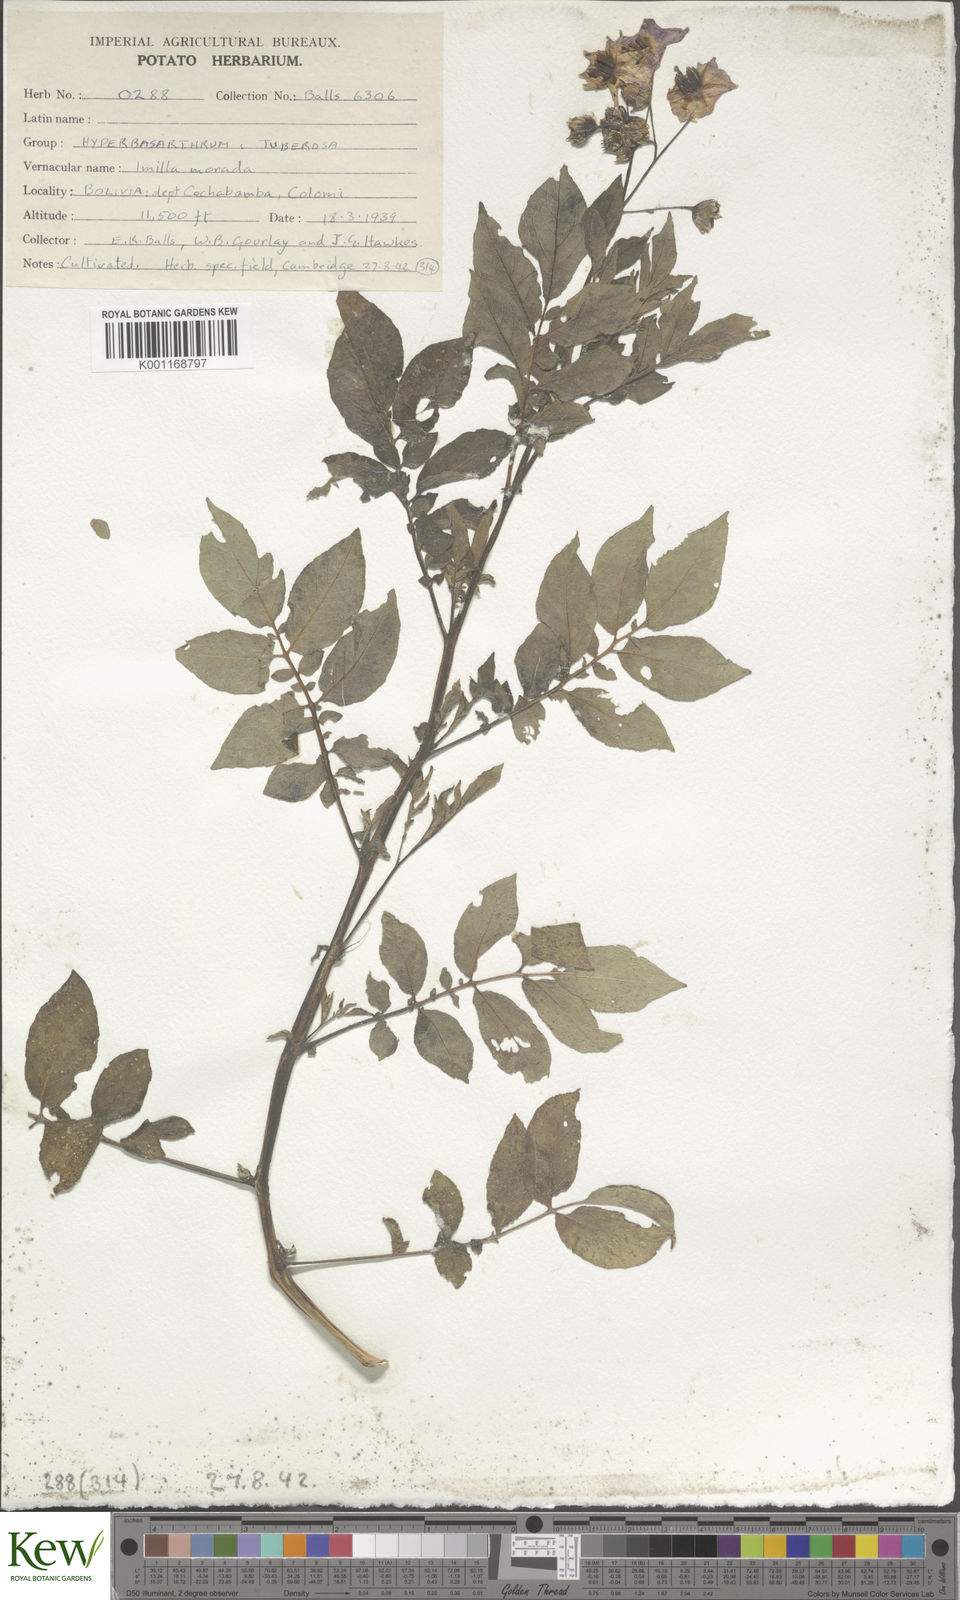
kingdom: Plantae
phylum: Tracheophyta
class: Magnoliopsida
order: Solanales
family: Solanaceae
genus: Solanum
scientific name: Solanum chaucha
